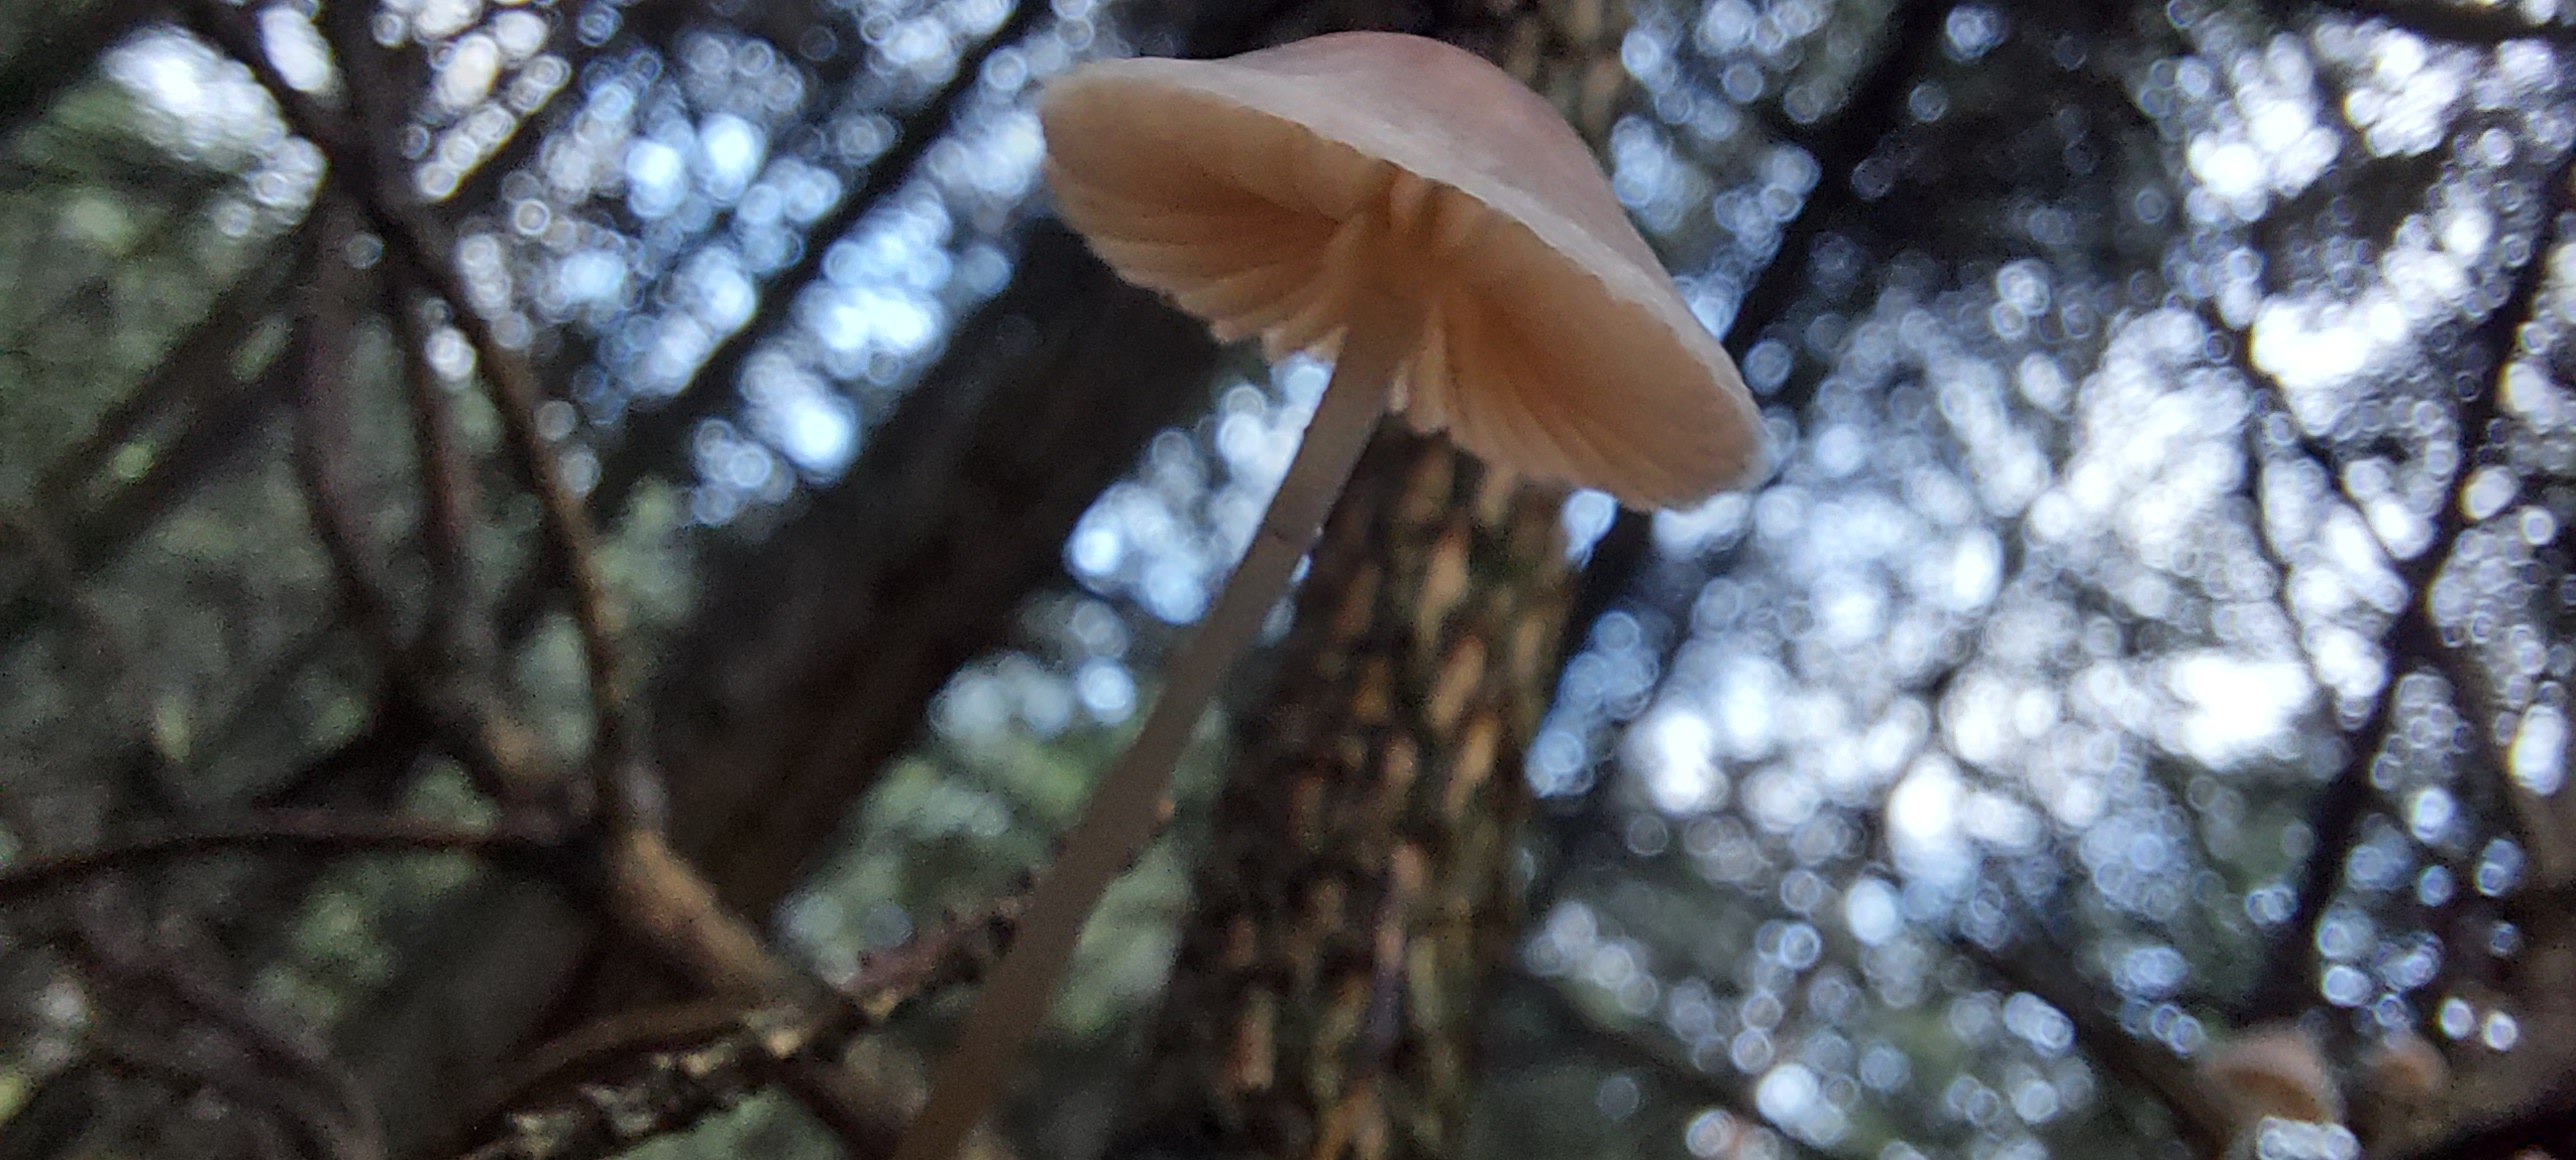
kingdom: Fungi
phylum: Basidiomycota
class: Agaricomycetes
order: Agaricales
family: Mycenaceae
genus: Mycena
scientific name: Mycena
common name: huesvamp
